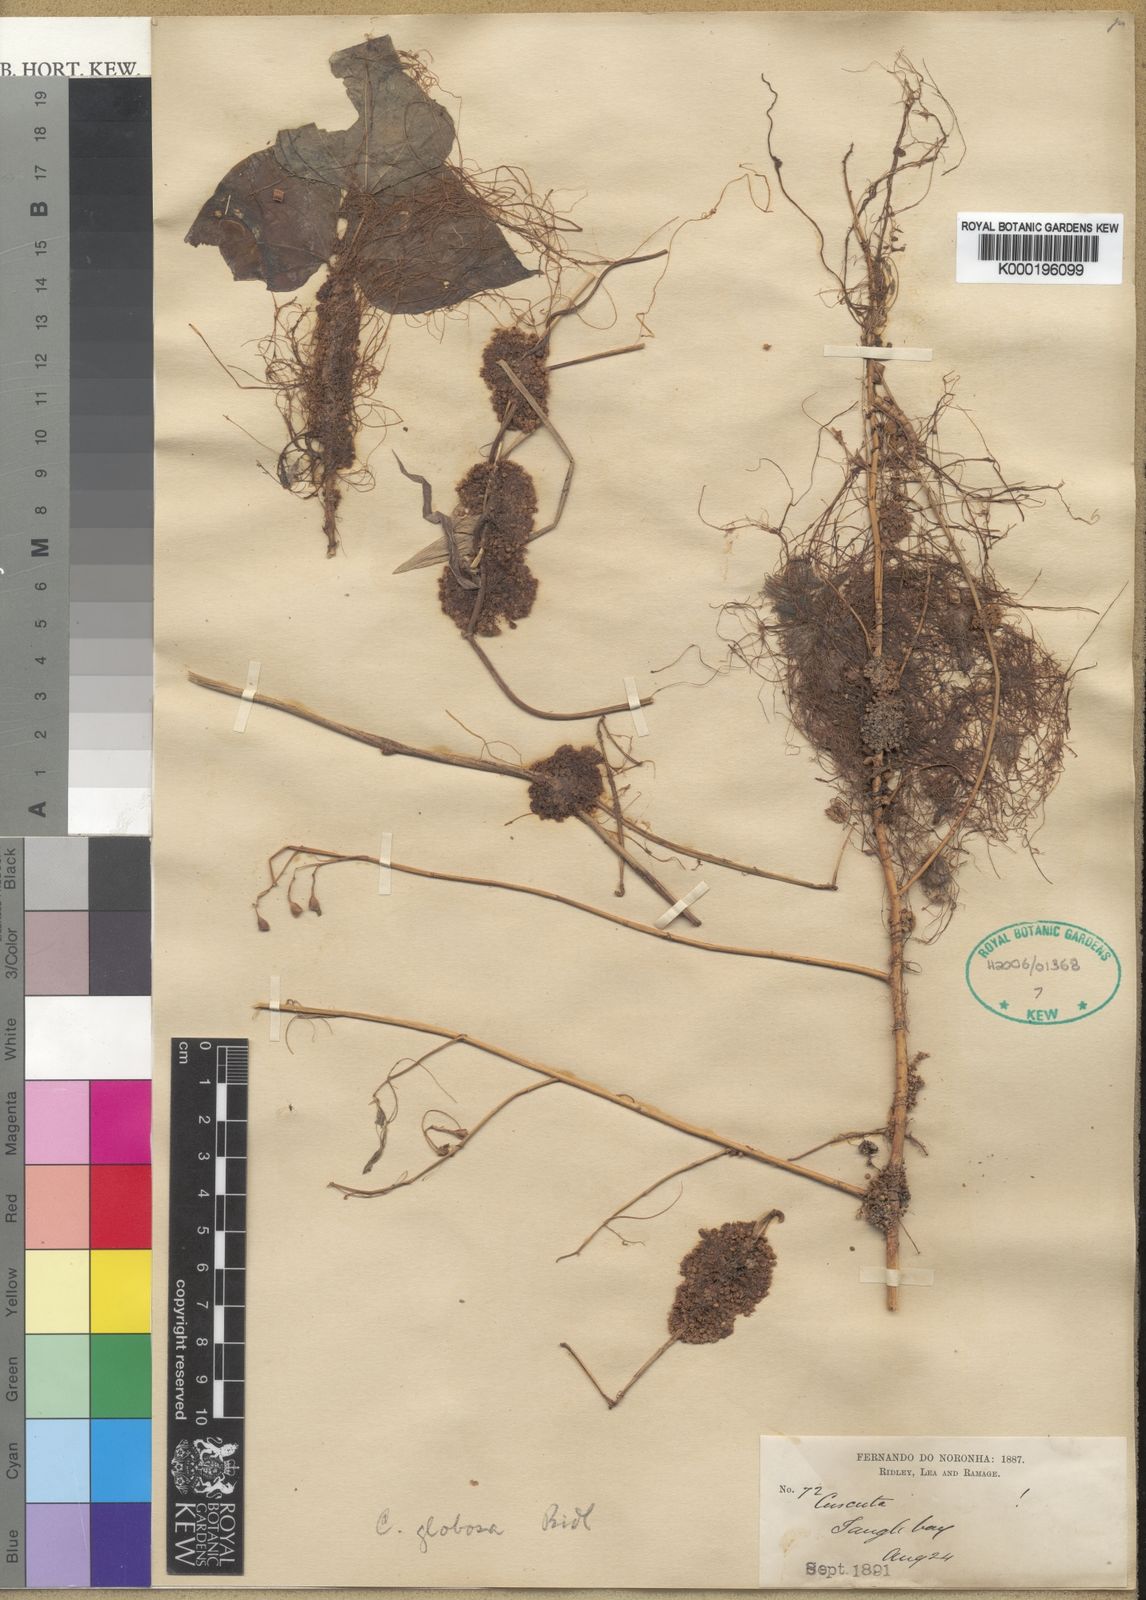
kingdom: Plantae
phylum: Tracheophyta
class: Magnoliopsida
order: Solanales
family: Convolvulaceae
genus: Cuscuta
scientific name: Cuscuta globosa
